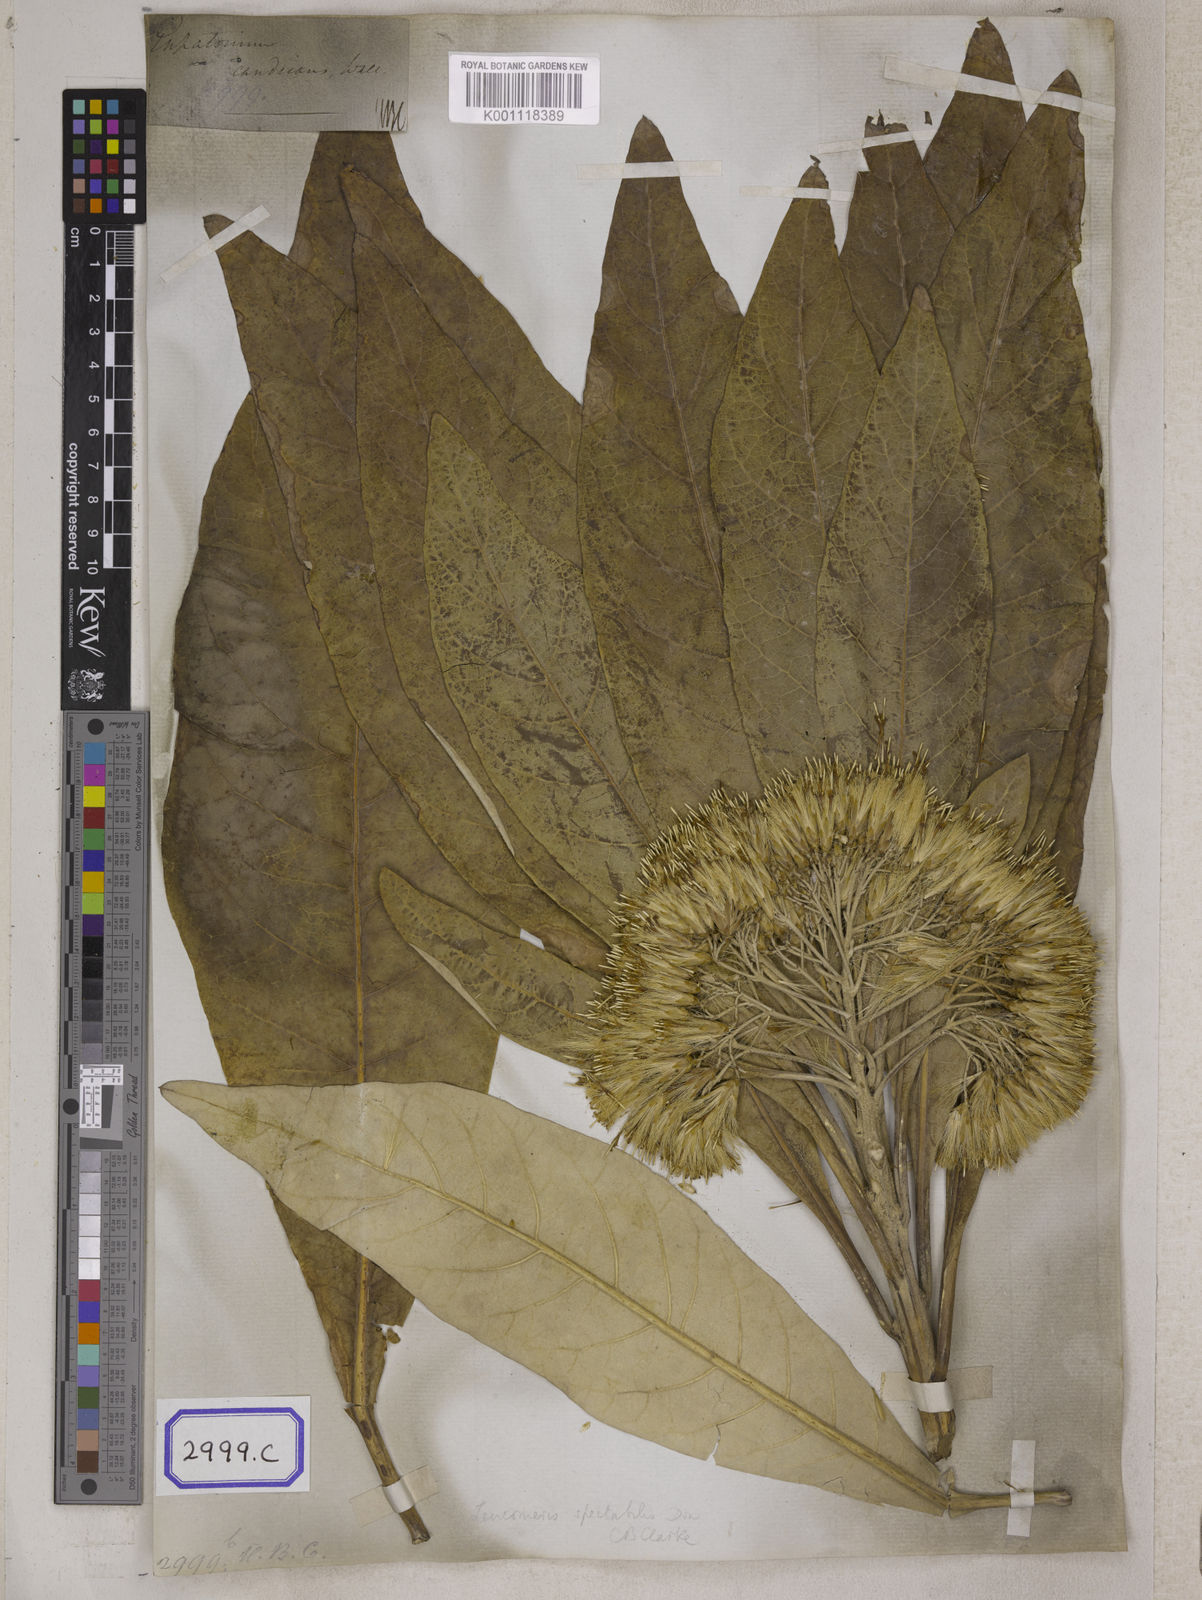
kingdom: Plantae
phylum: Tracheophyta
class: Magnoliopsida
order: Asterales
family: Asteraceae
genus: Erigeron
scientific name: Erigeron Conyza candicans
